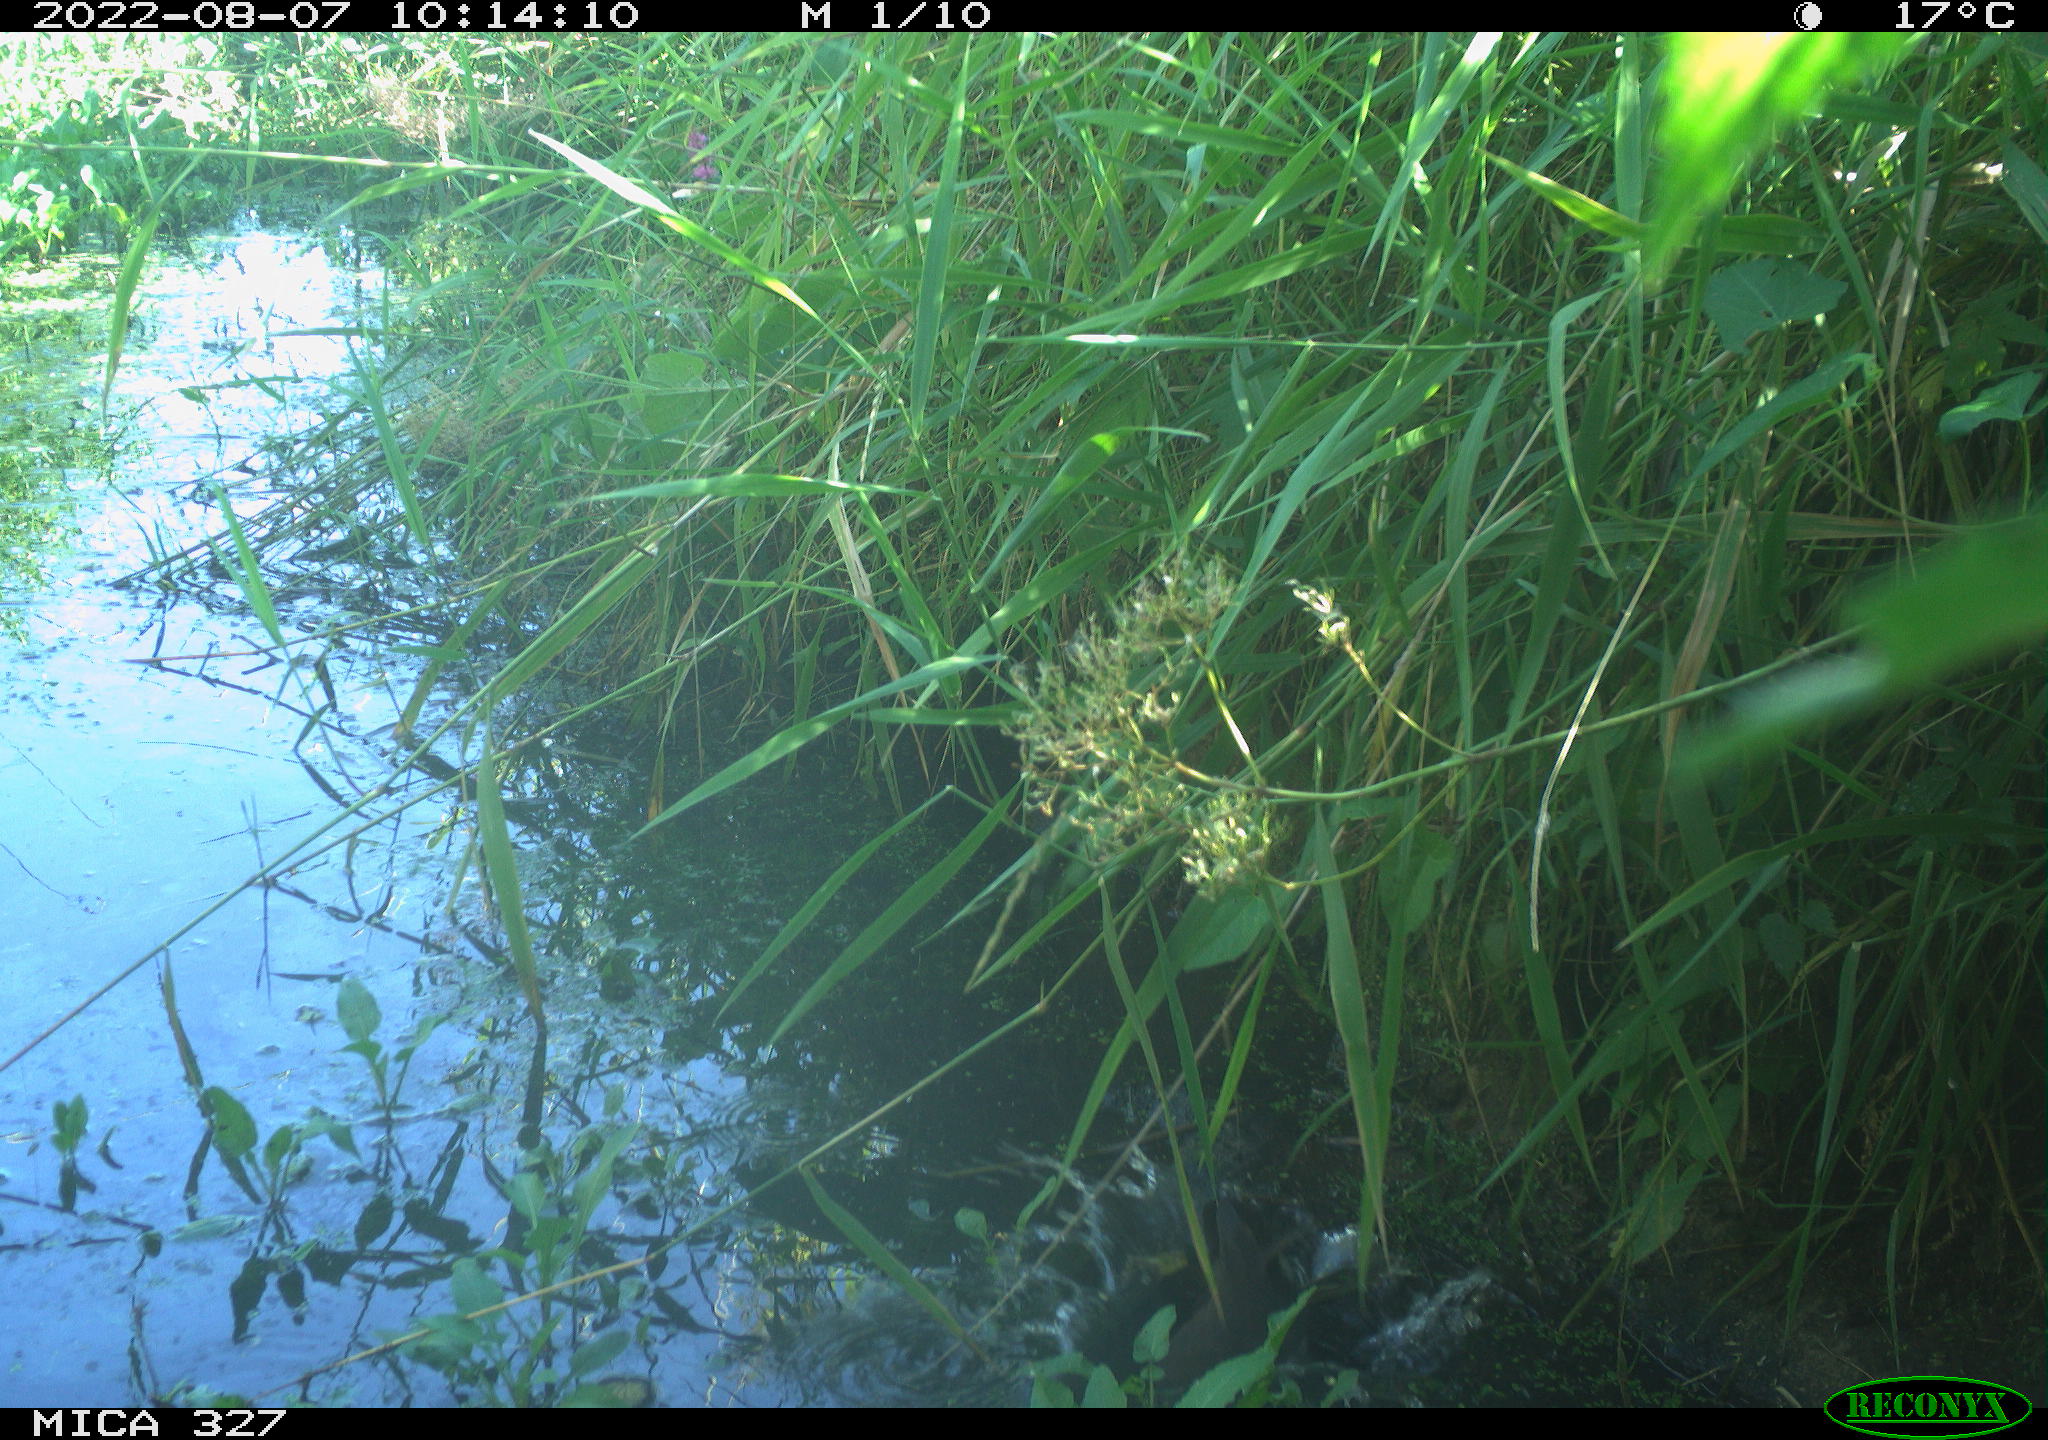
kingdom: Animalia
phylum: Chordata
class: Aves
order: Gruiformes
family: Rallidae
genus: Gallinula
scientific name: Gallinula chloropus
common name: Common moorhen
